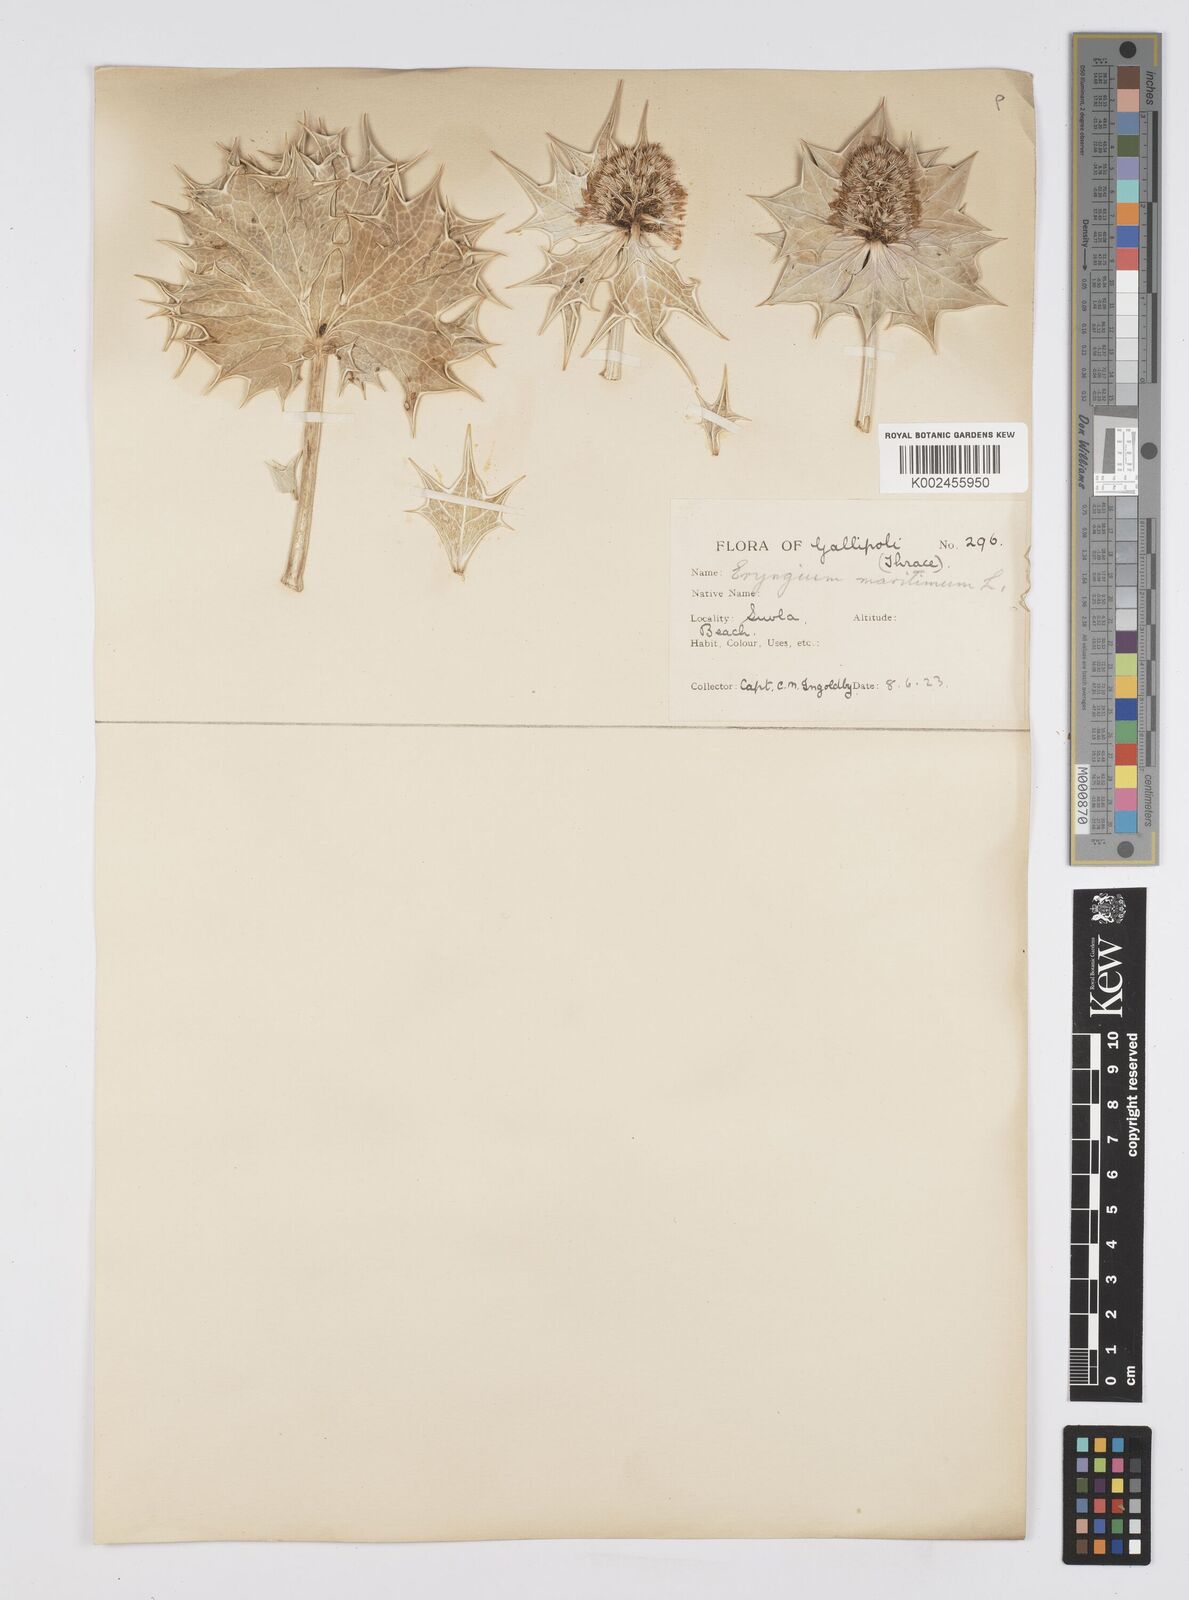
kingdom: Plantae
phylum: Tracheophyta
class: Magnoliopsida
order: Apiales
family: Apiaceae
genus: Eryngium
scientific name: Eryngium maritimum
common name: Sea-holly
